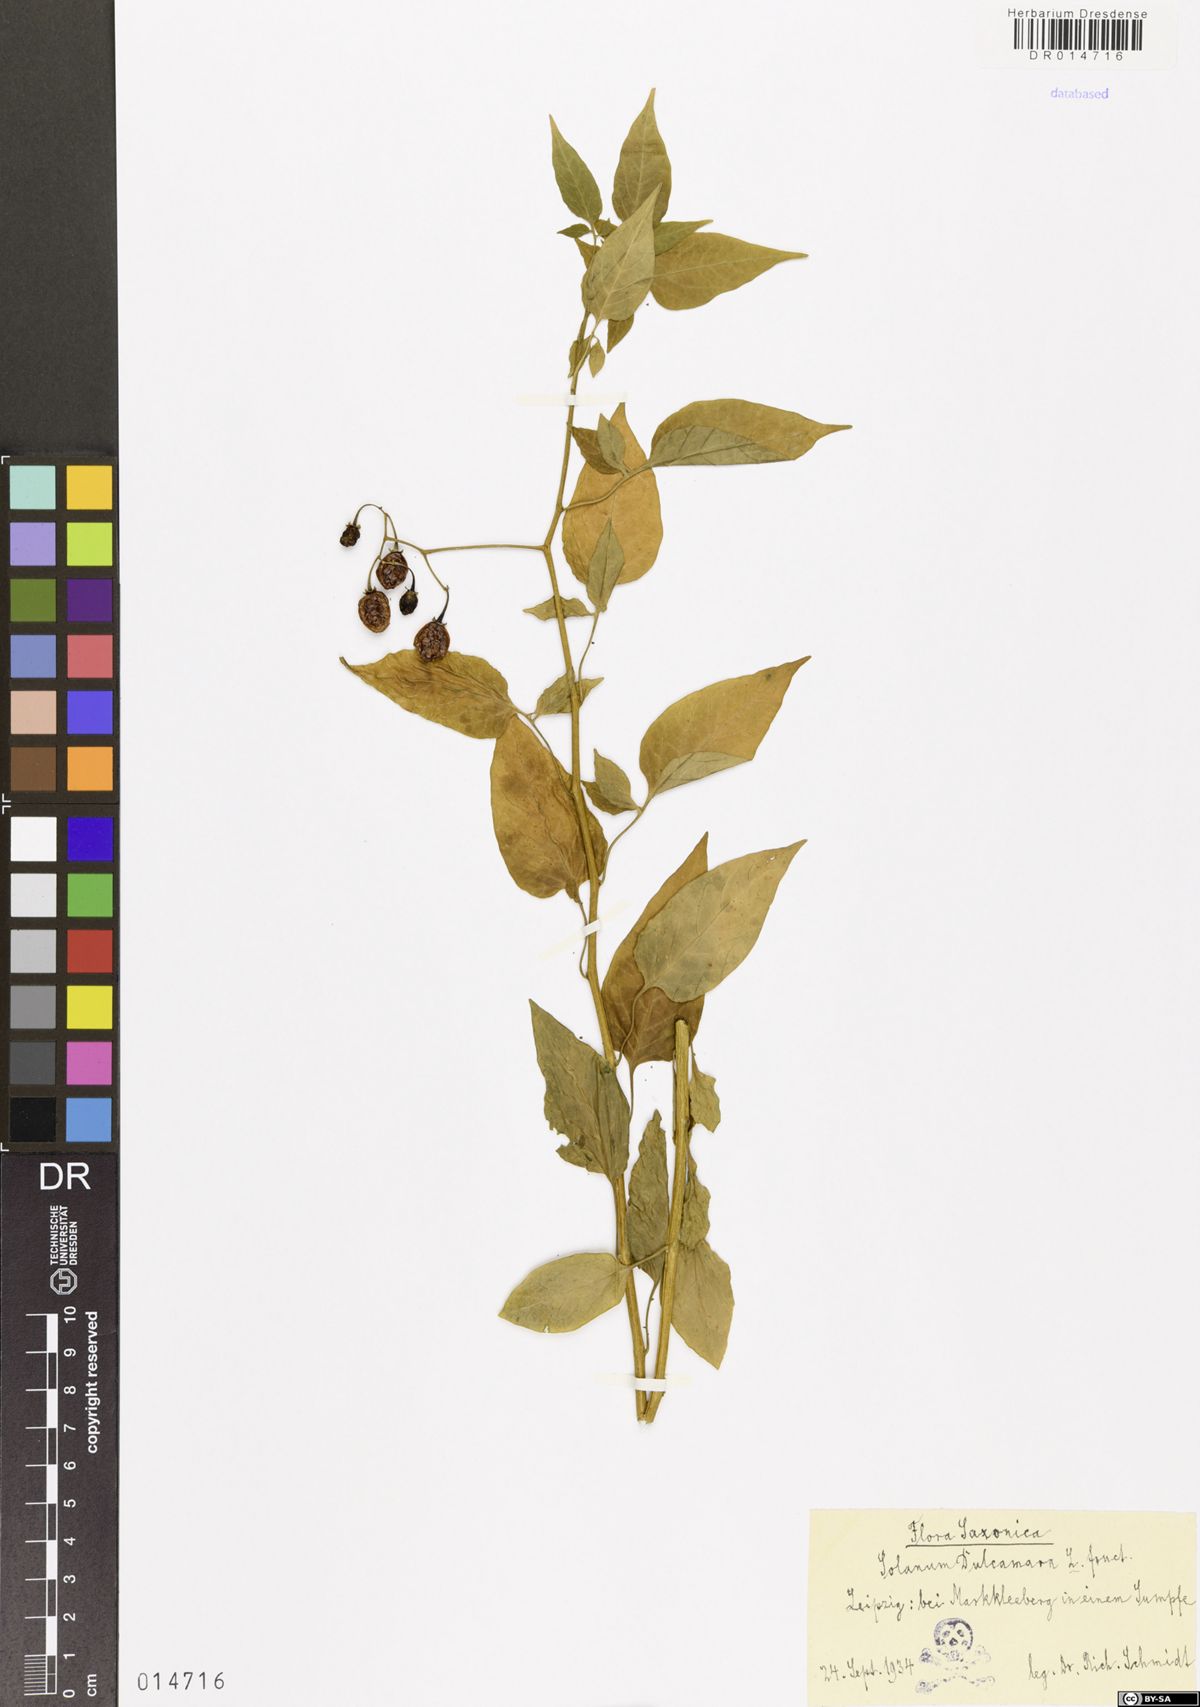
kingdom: Plantae
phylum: Tracheophyta
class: Magnoliopsida
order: Solanales
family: Solanaceae
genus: Solanum
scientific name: Solanum dulcamara
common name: Climbing nightshade
